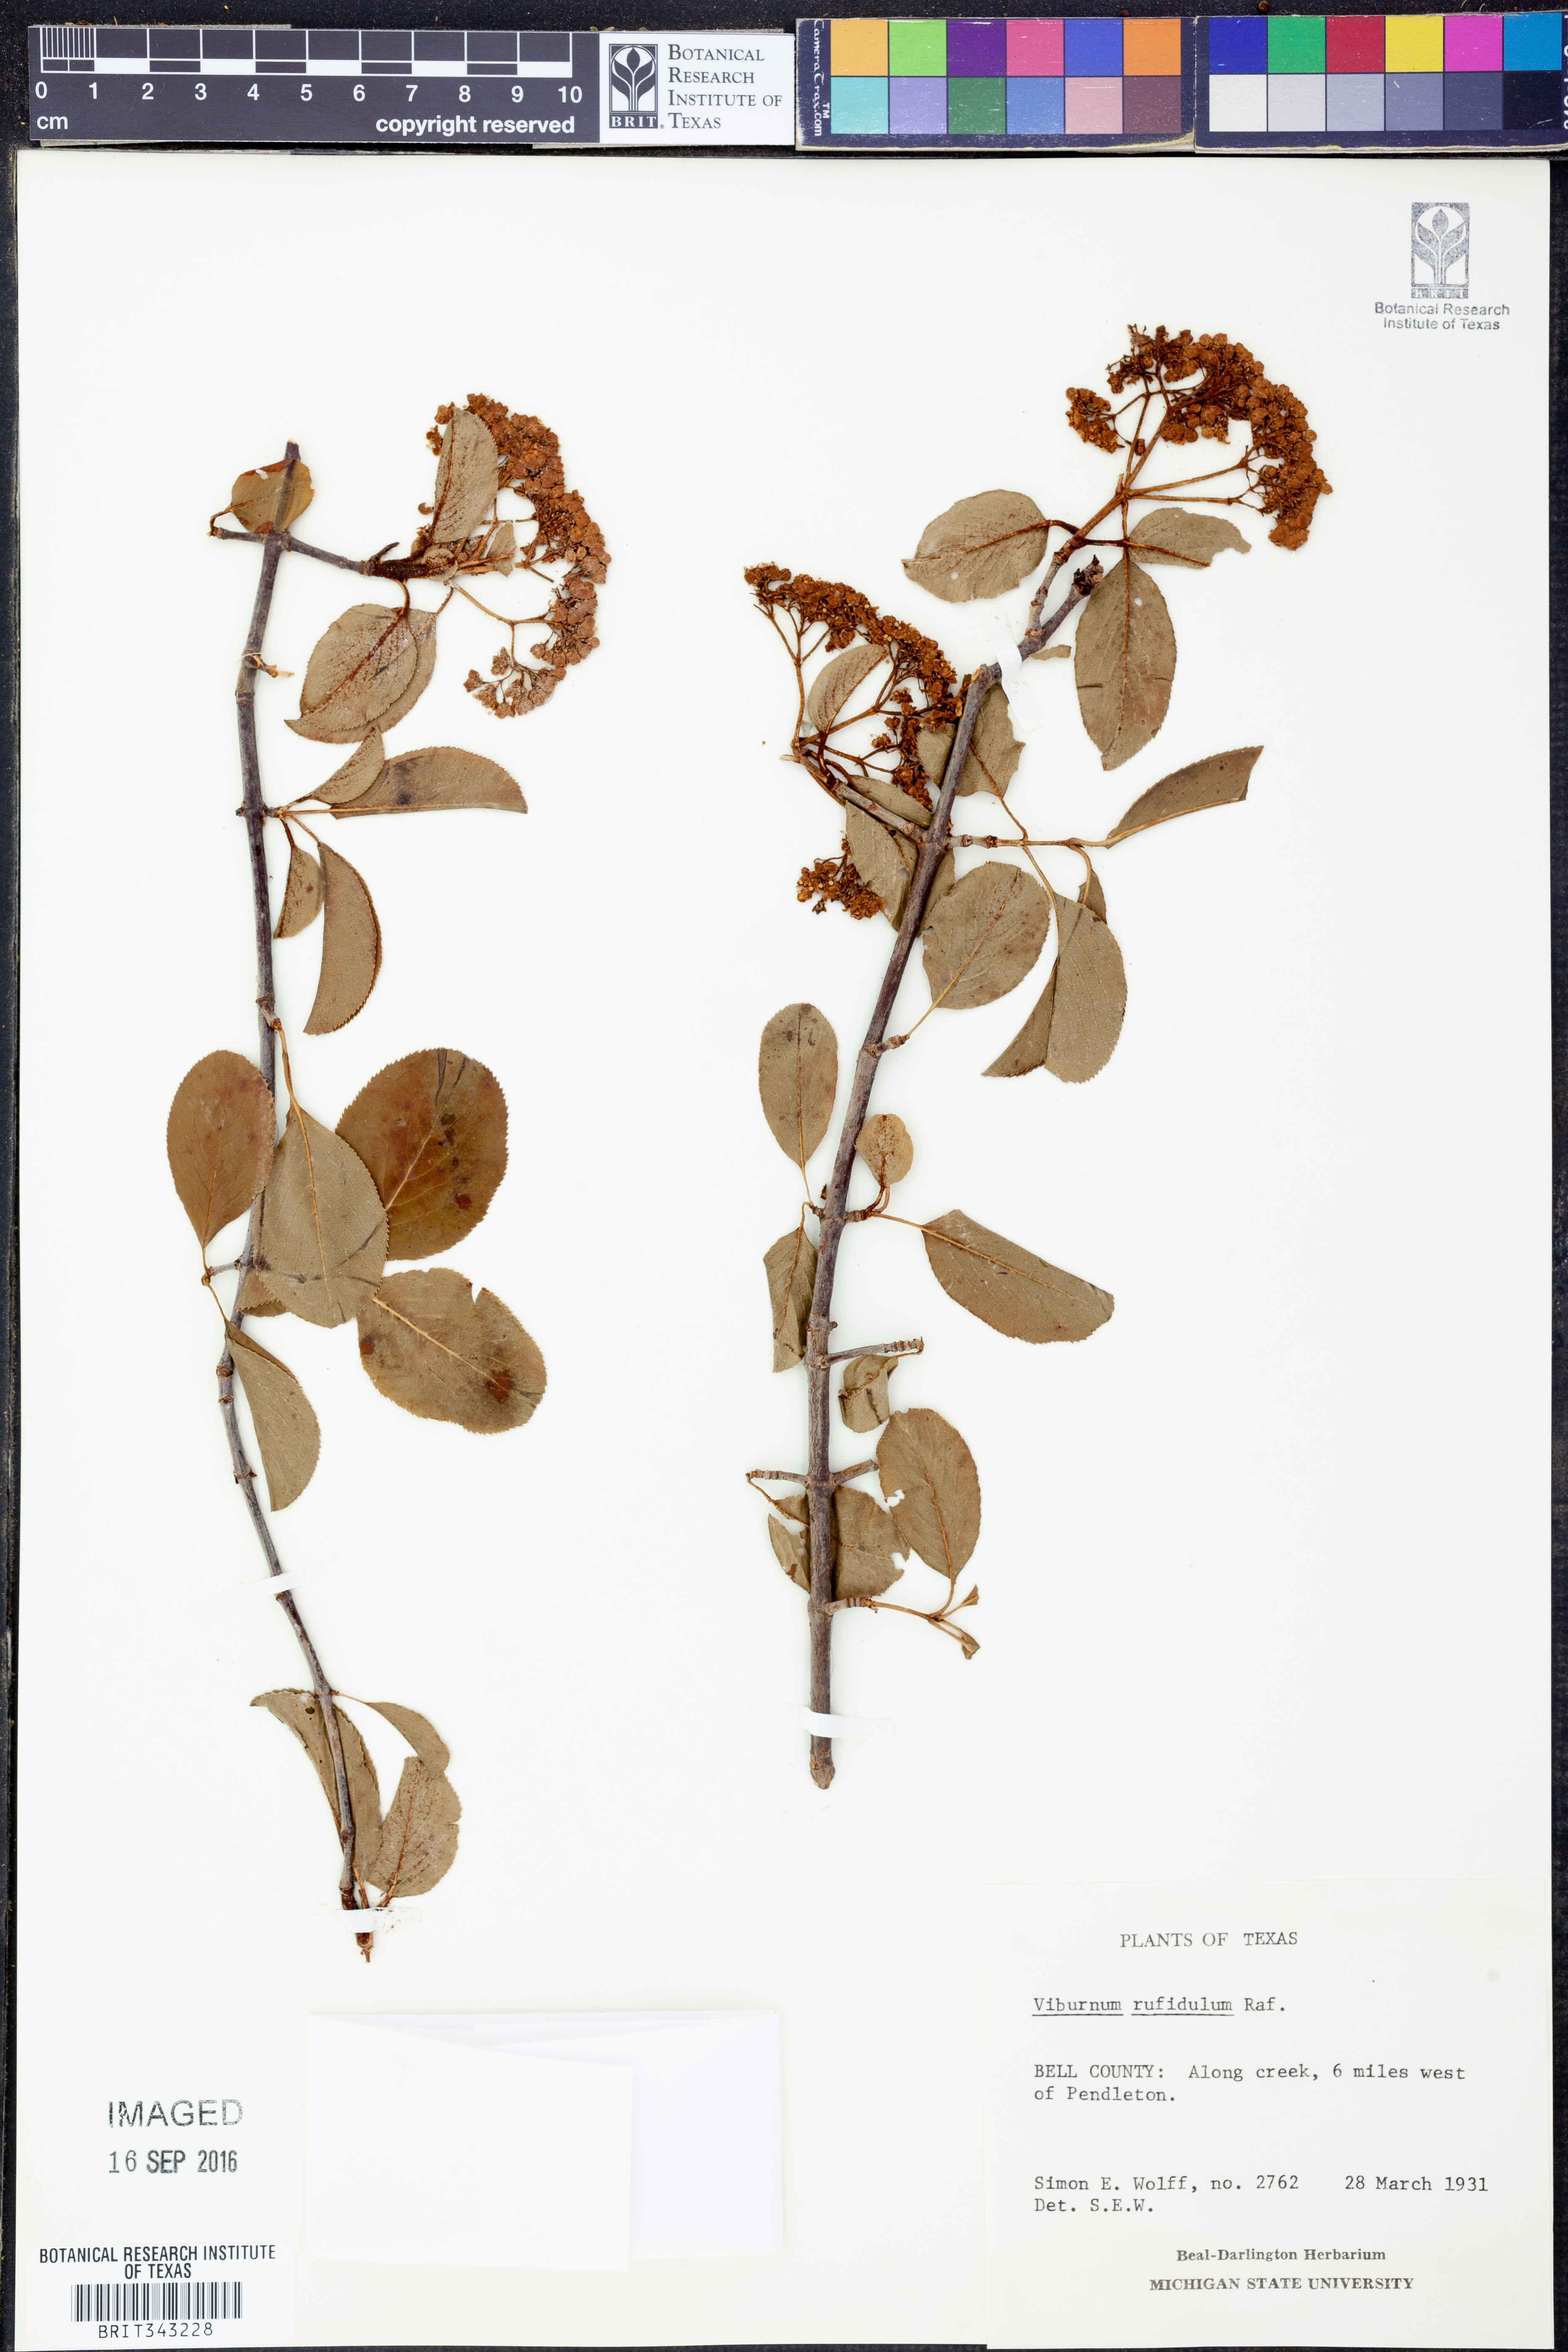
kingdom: Plantae
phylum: Tracheophyta
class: Magnoliopsida
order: Dipsacales
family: Viburnaceae
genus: Viburnum
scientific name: Viburnum rufidulum
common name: Blue haw
